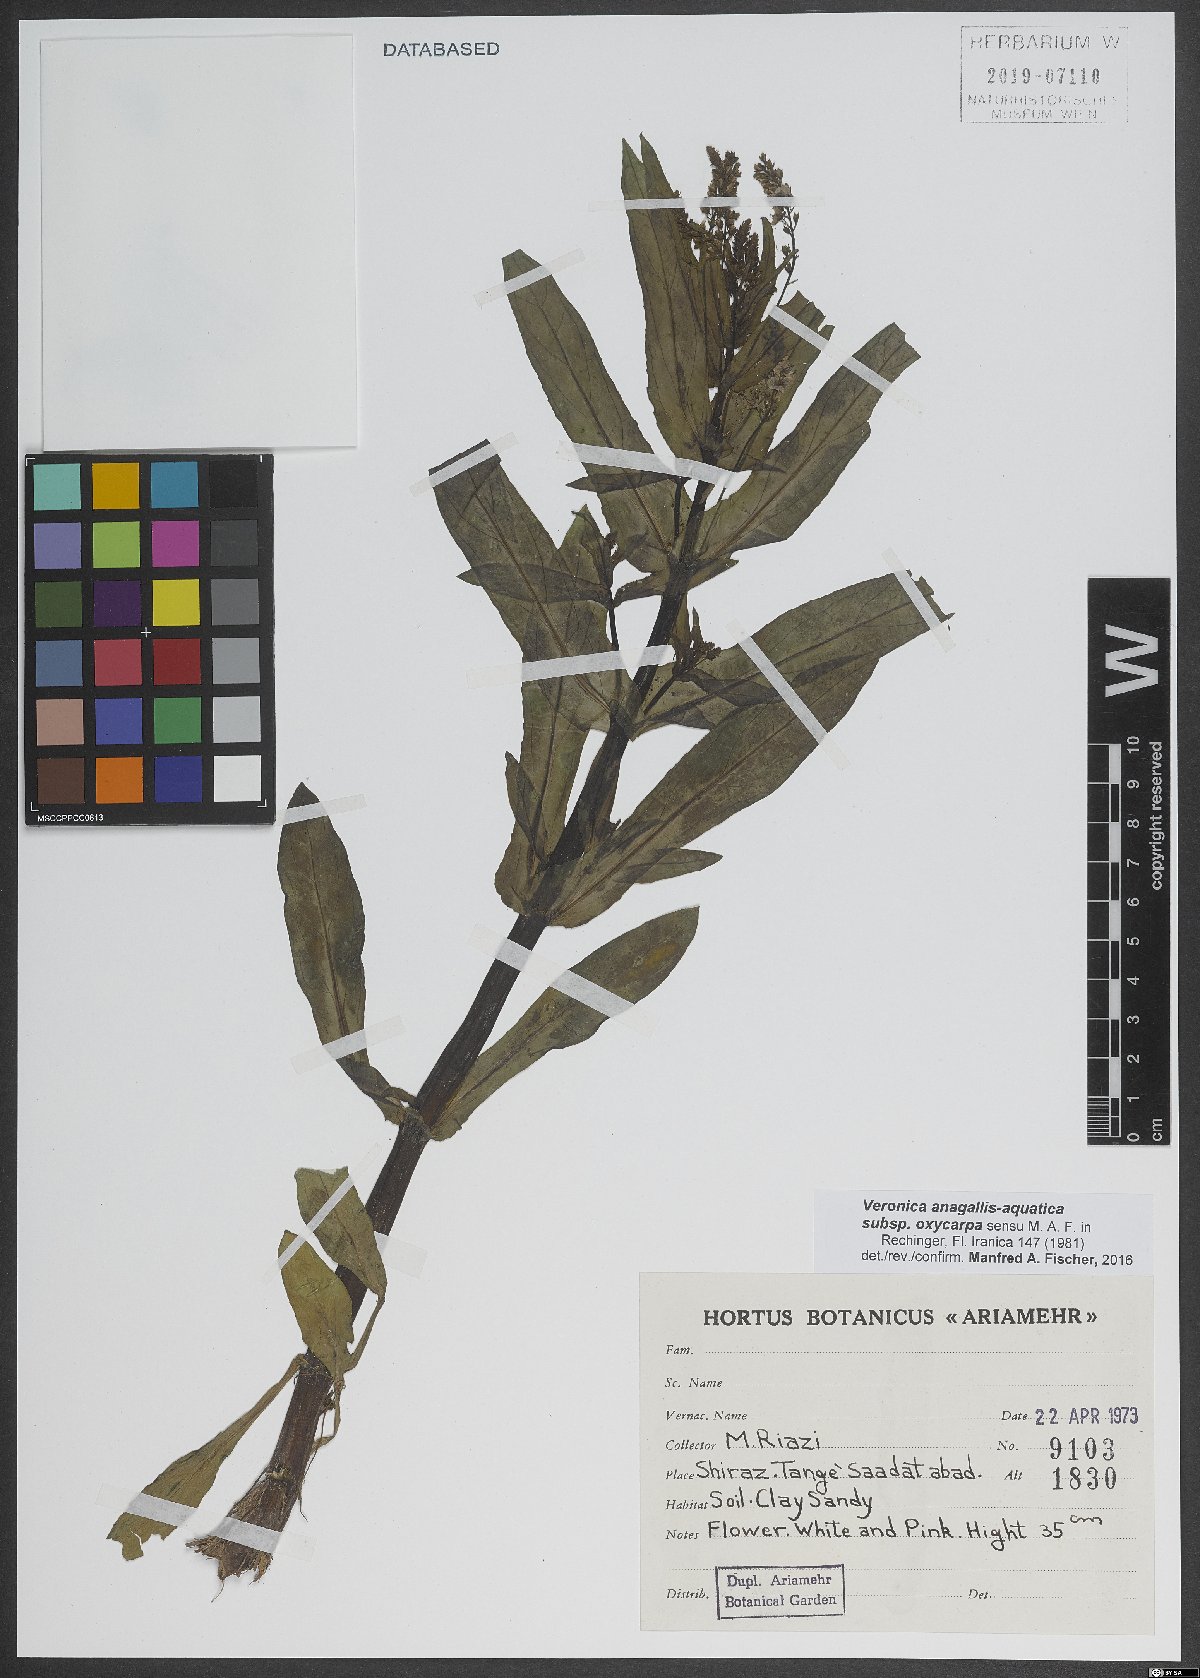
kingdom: Plantae
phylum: Tracheophyta
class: Magnoliopsida
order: Lamiales
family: Plantaginaceae
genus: Veronica
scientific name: Veronica oxycarpa
